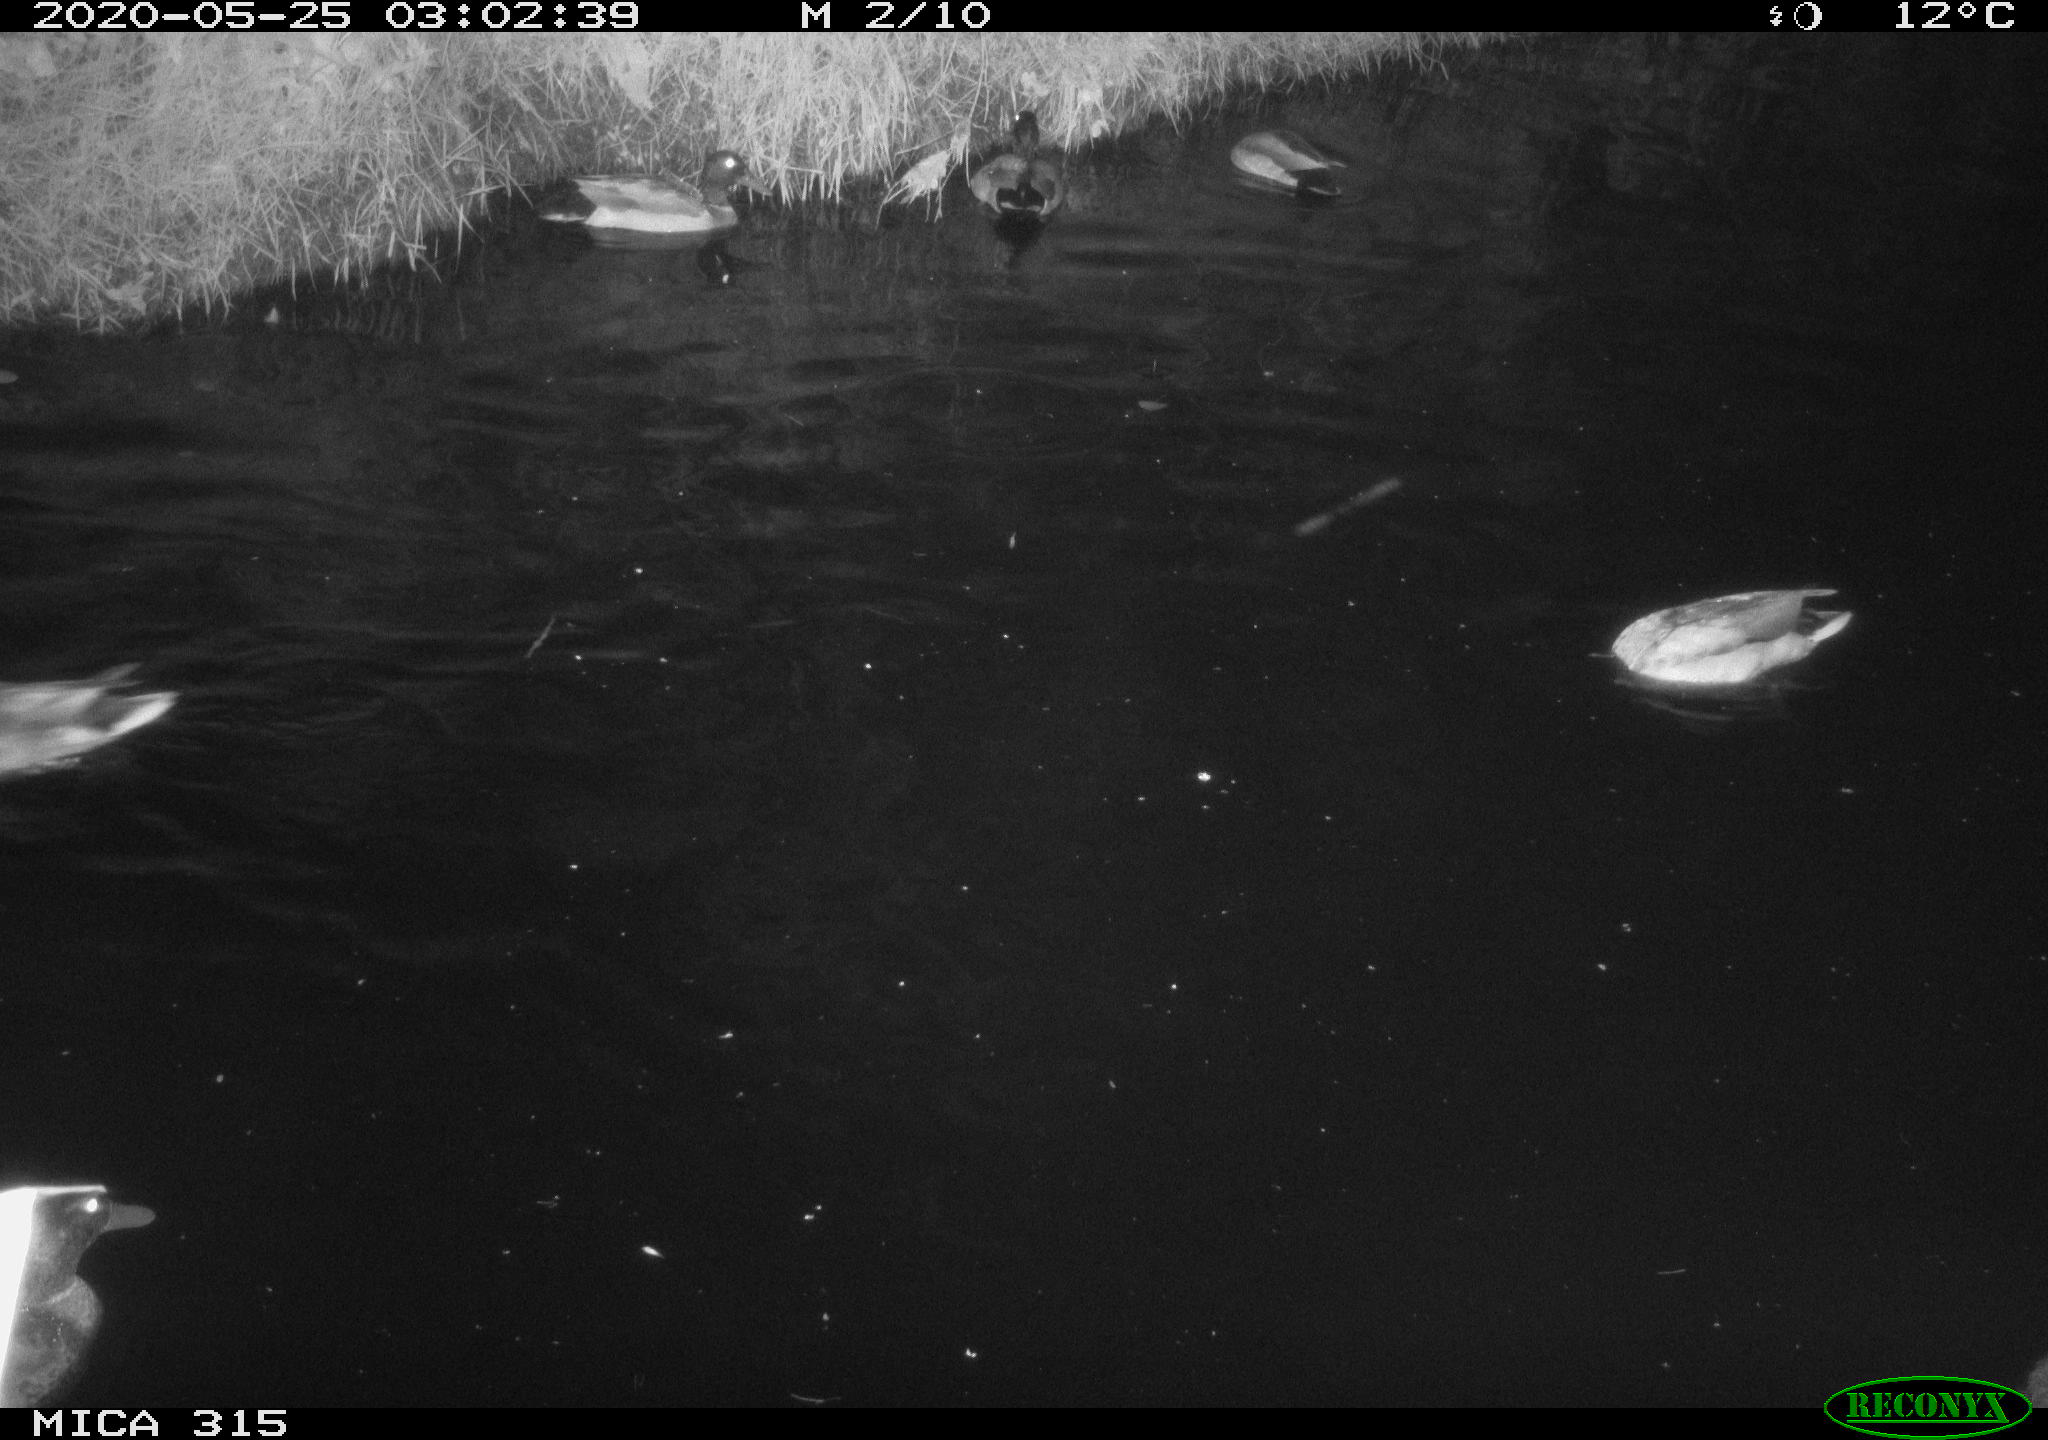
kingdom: Animalia
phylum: Chordata
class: Aves
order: Anseriformes
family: Anatidae
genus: Anas
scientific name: Anas platyrhynchos
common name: Mallard
